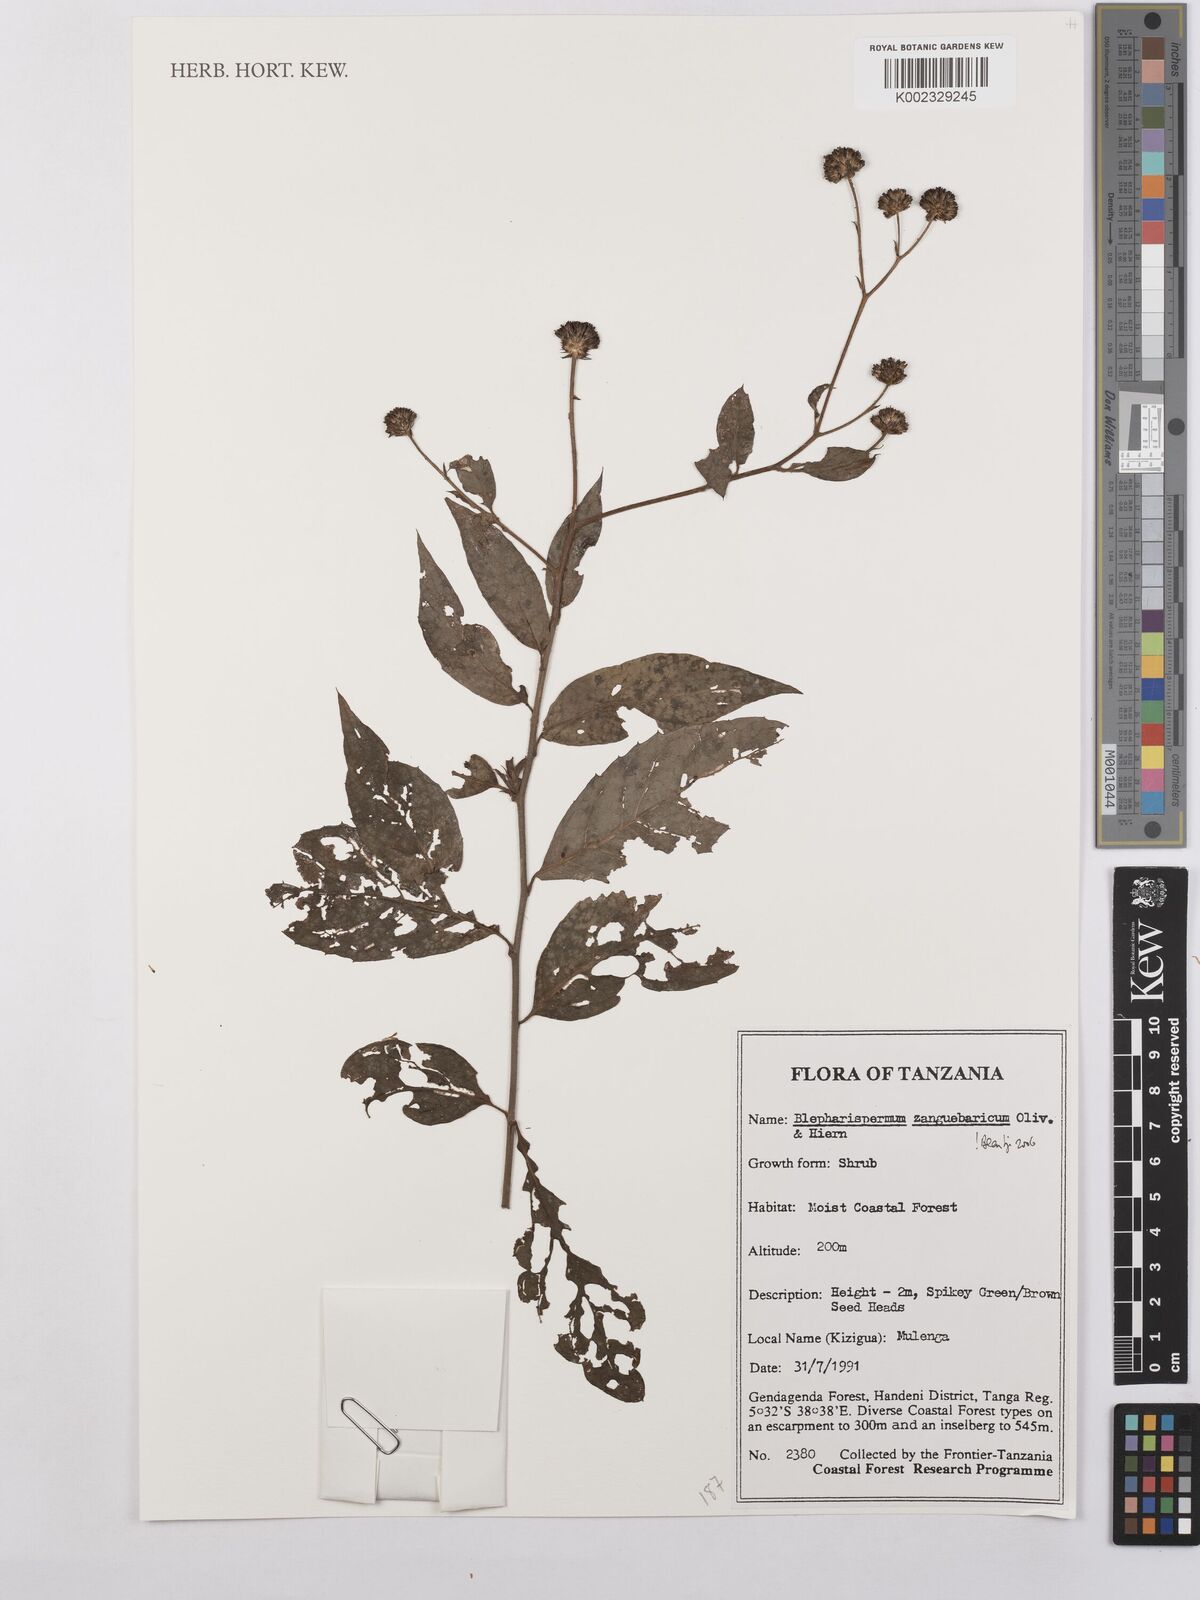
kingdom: Plantae
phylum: Tracheophyta
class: Magnoliopsida
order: Asterales
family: Asteraceae
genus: Blepharispermum
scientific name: Blepharispermum zanguebaricum
